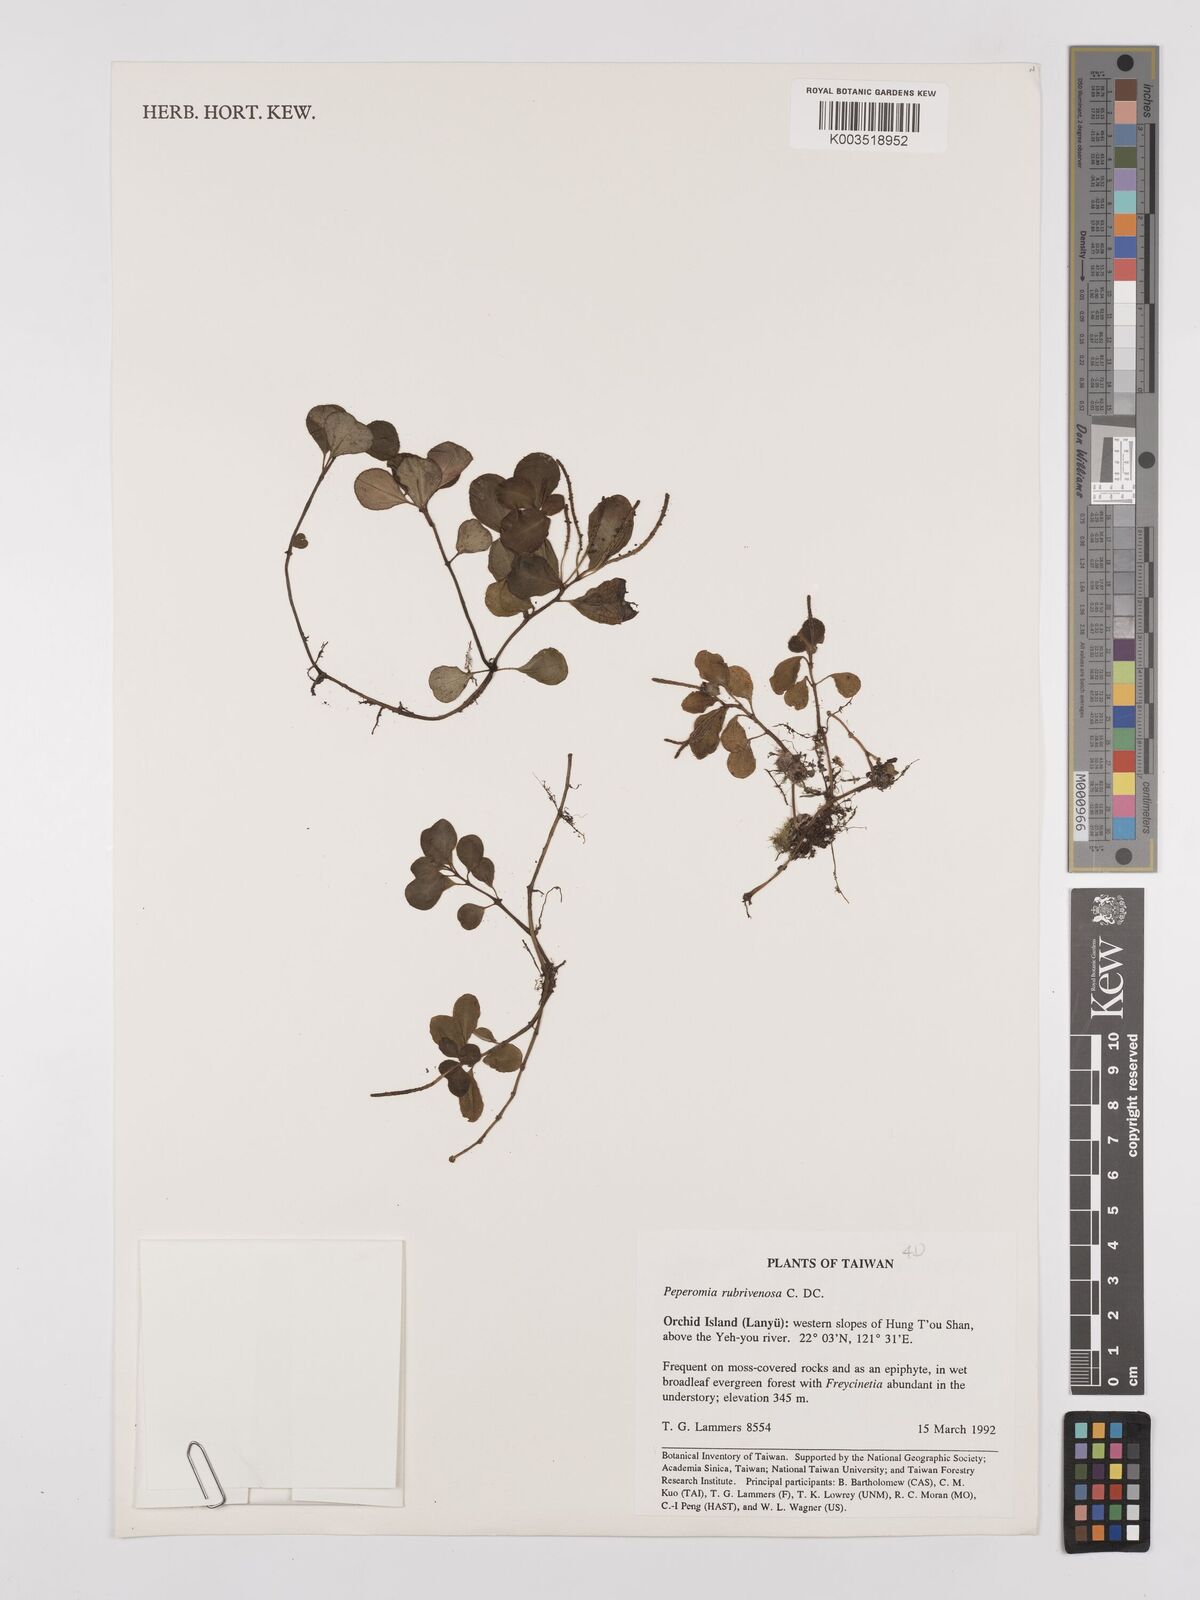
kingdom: Plantae
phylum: Tracheophyta
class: Magnoliopsida
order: Piperales
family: Piperaceae
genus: Peperomia
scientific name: Peperomia rubrivenosa
